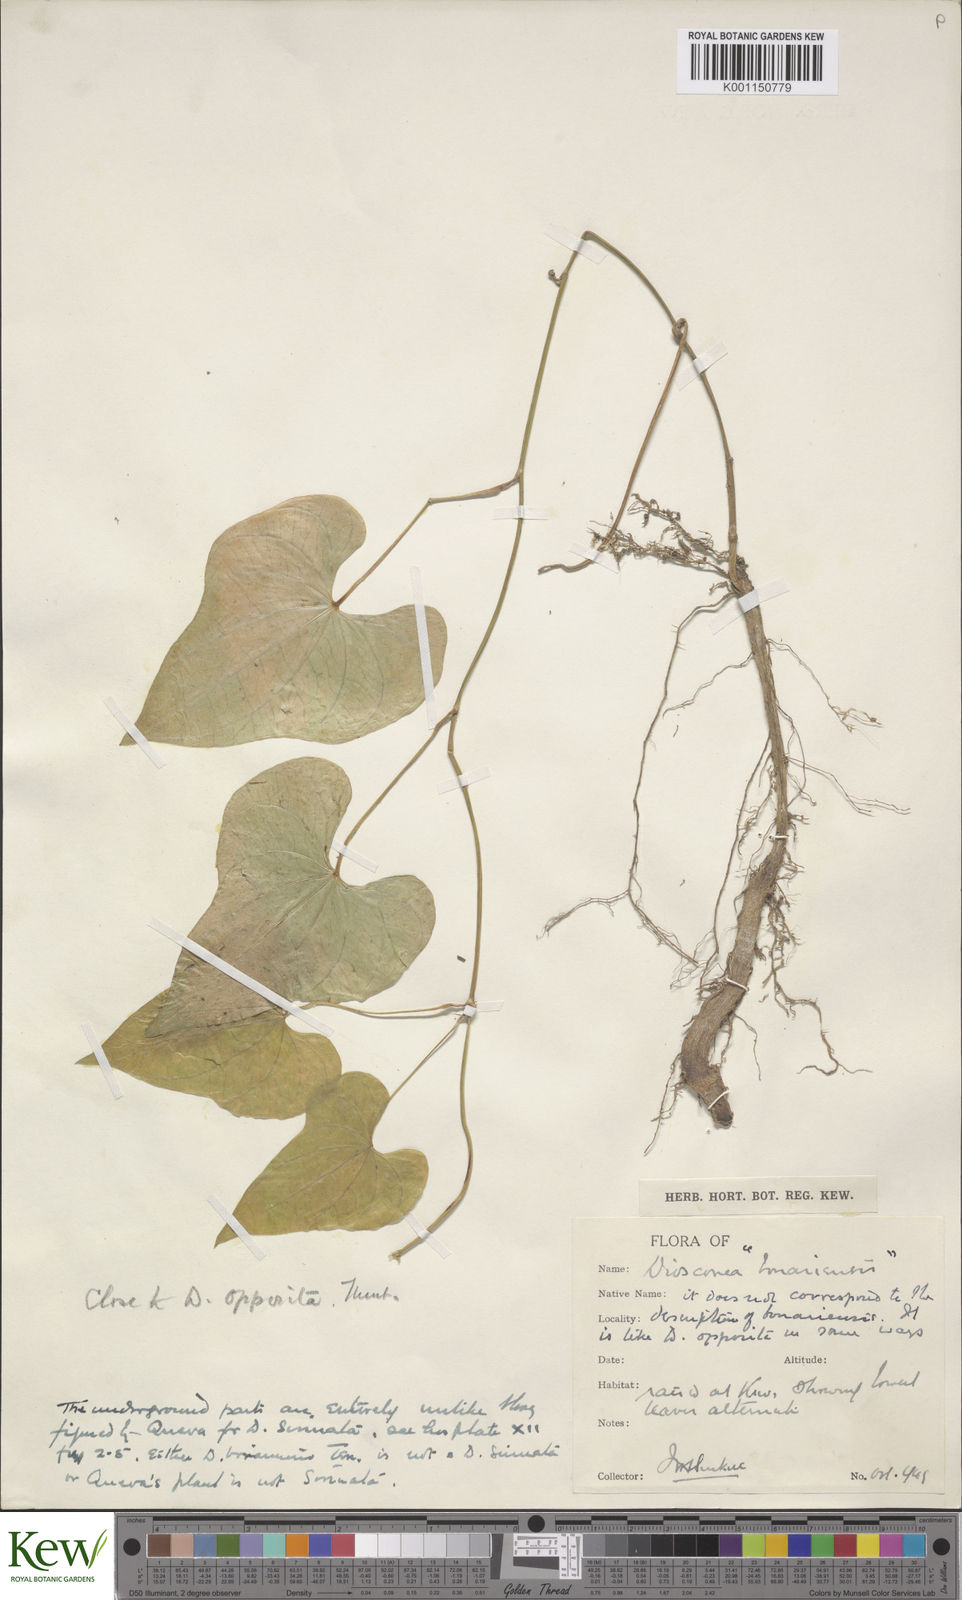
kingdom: Plantae
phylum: Tracheophyta
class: Liliopsida
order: Dioscoreales
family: Dioscoreaceae
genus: Dioscorea
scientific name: Dioscorea sinuata
